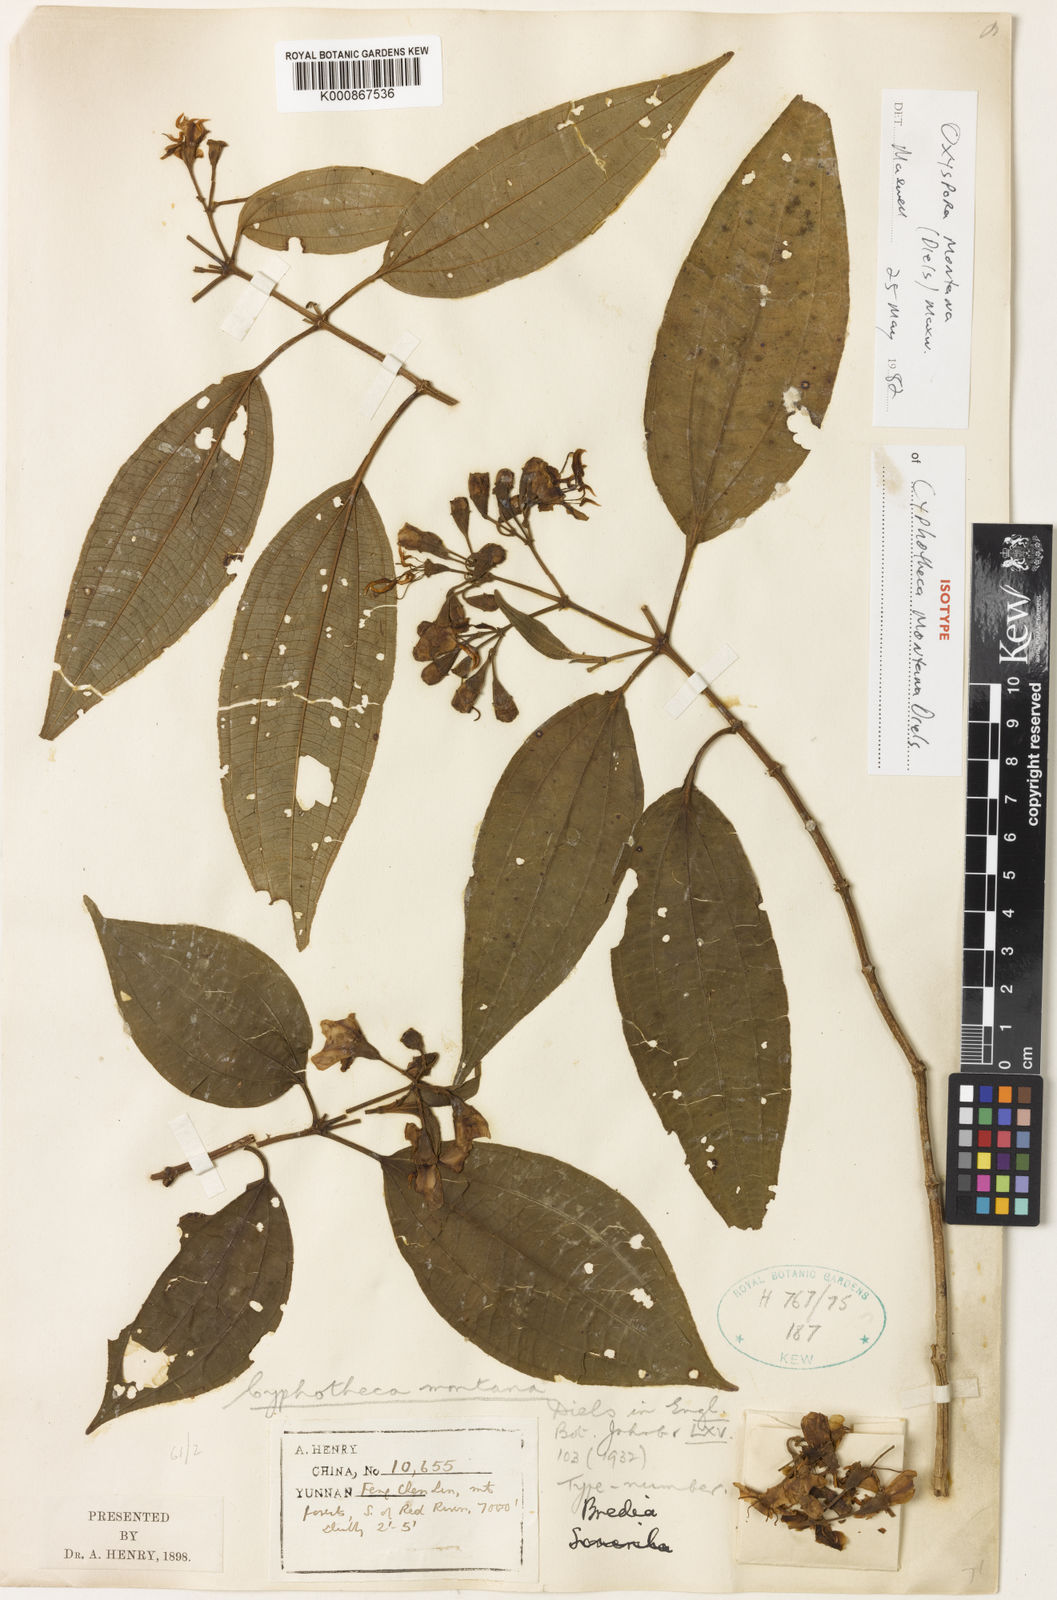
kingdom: Plantae
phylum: Tracheophyta
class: Magnoliopsida
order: Myrtales
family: Melastomataceae
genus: Cyphotheca
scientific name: Cyphotheca montana
